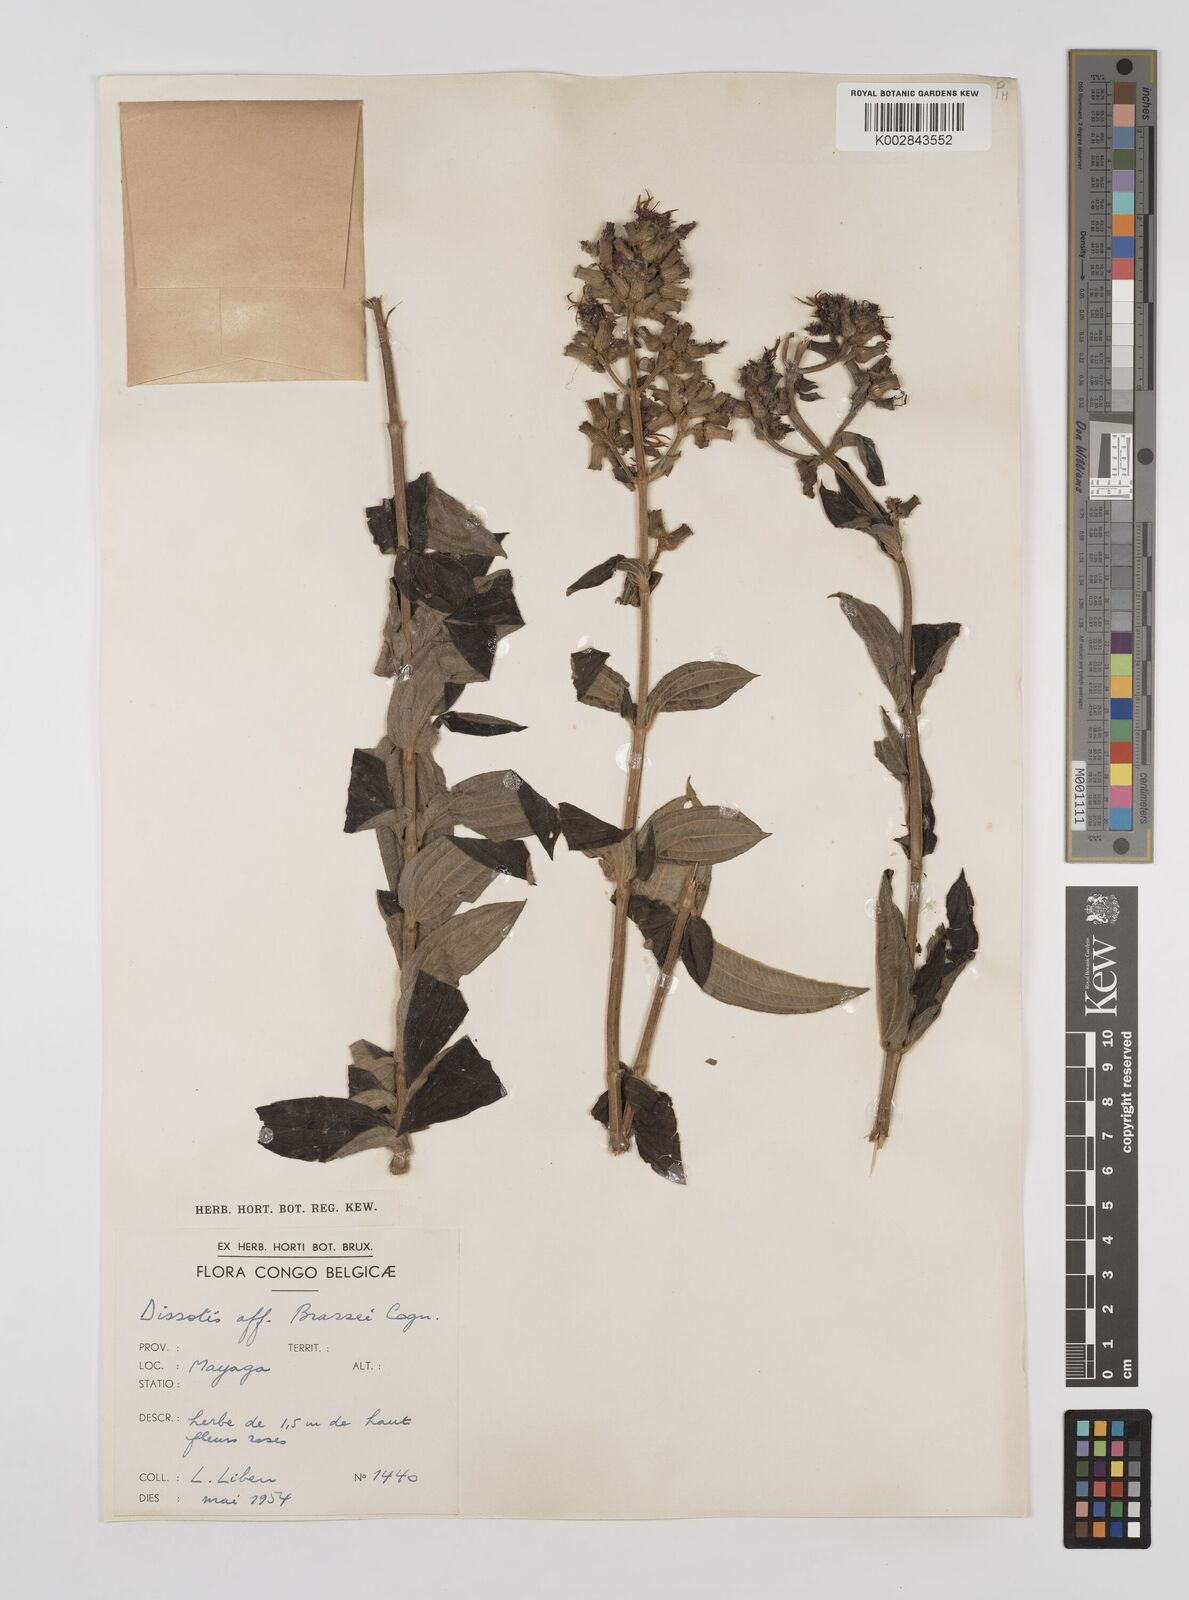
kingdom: Plantae
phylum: Tracheophyta
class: Magnoliopsida
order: Myrtales
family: Melastomataceae
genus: Dupineta
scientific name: Dupineta brazzae
